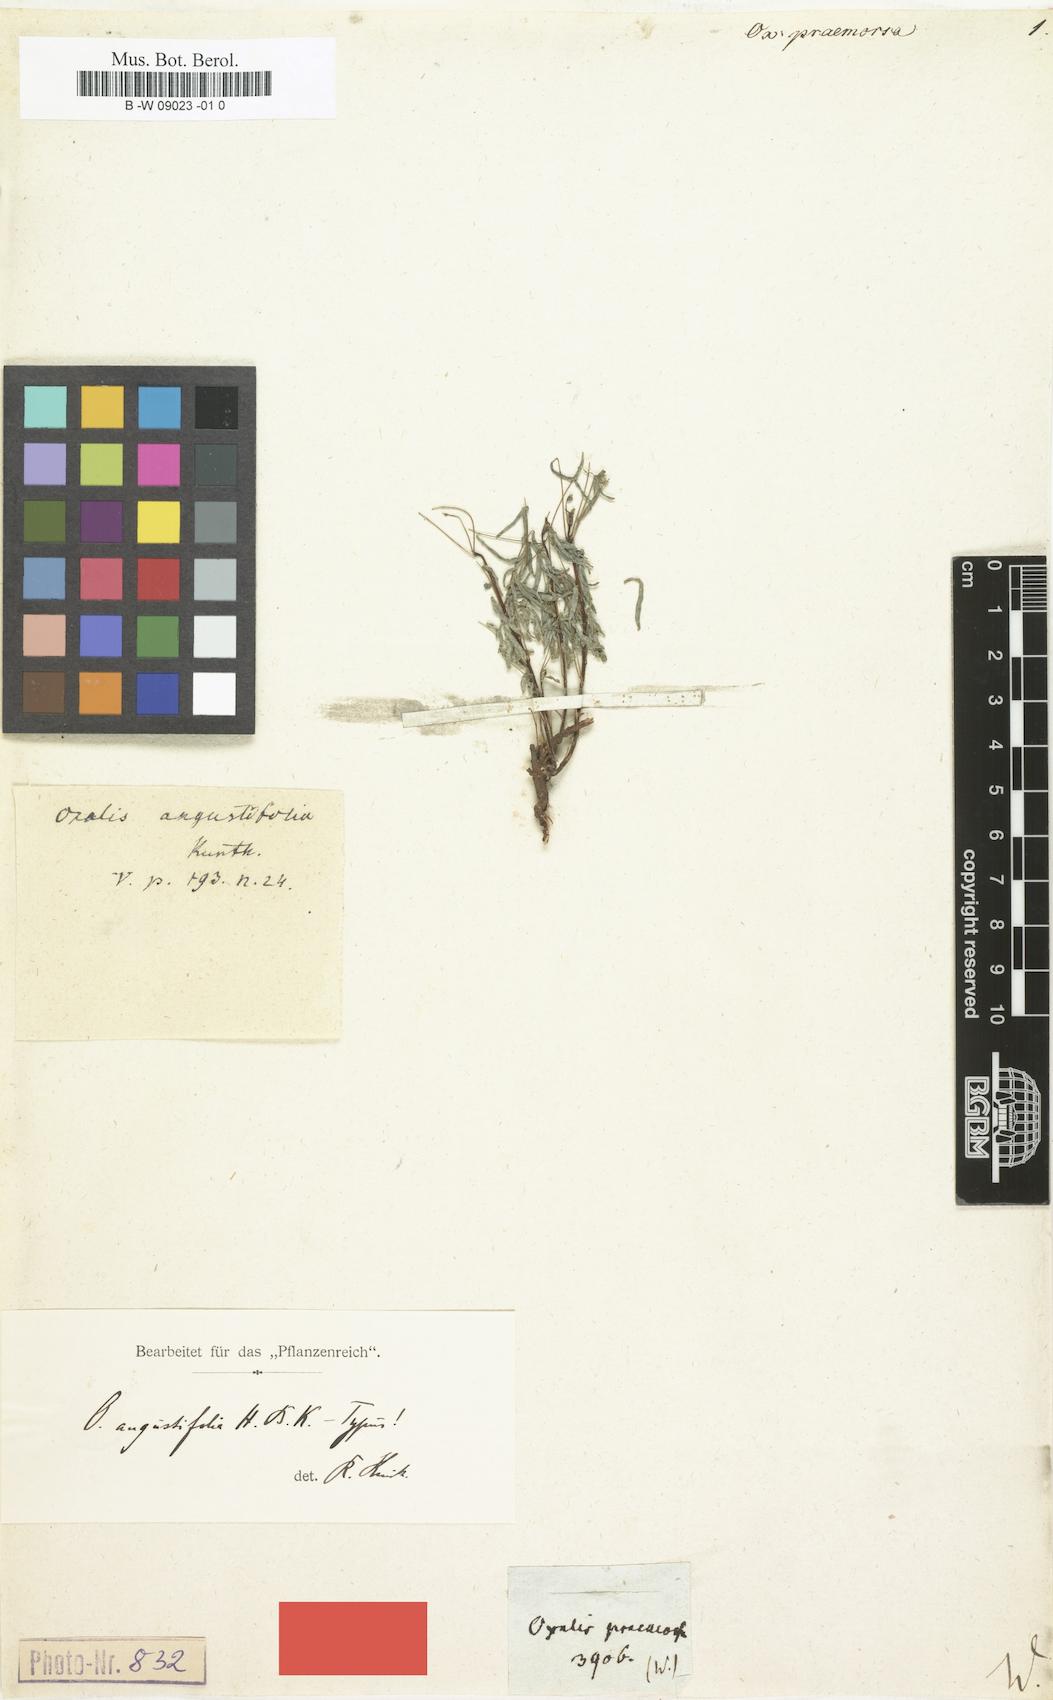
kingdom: Plantae
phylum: Tracheophyta
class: Magnoliopsida
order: Oxalidales
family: Oxalidaceae
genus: Oxalis
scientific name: Oxalis
